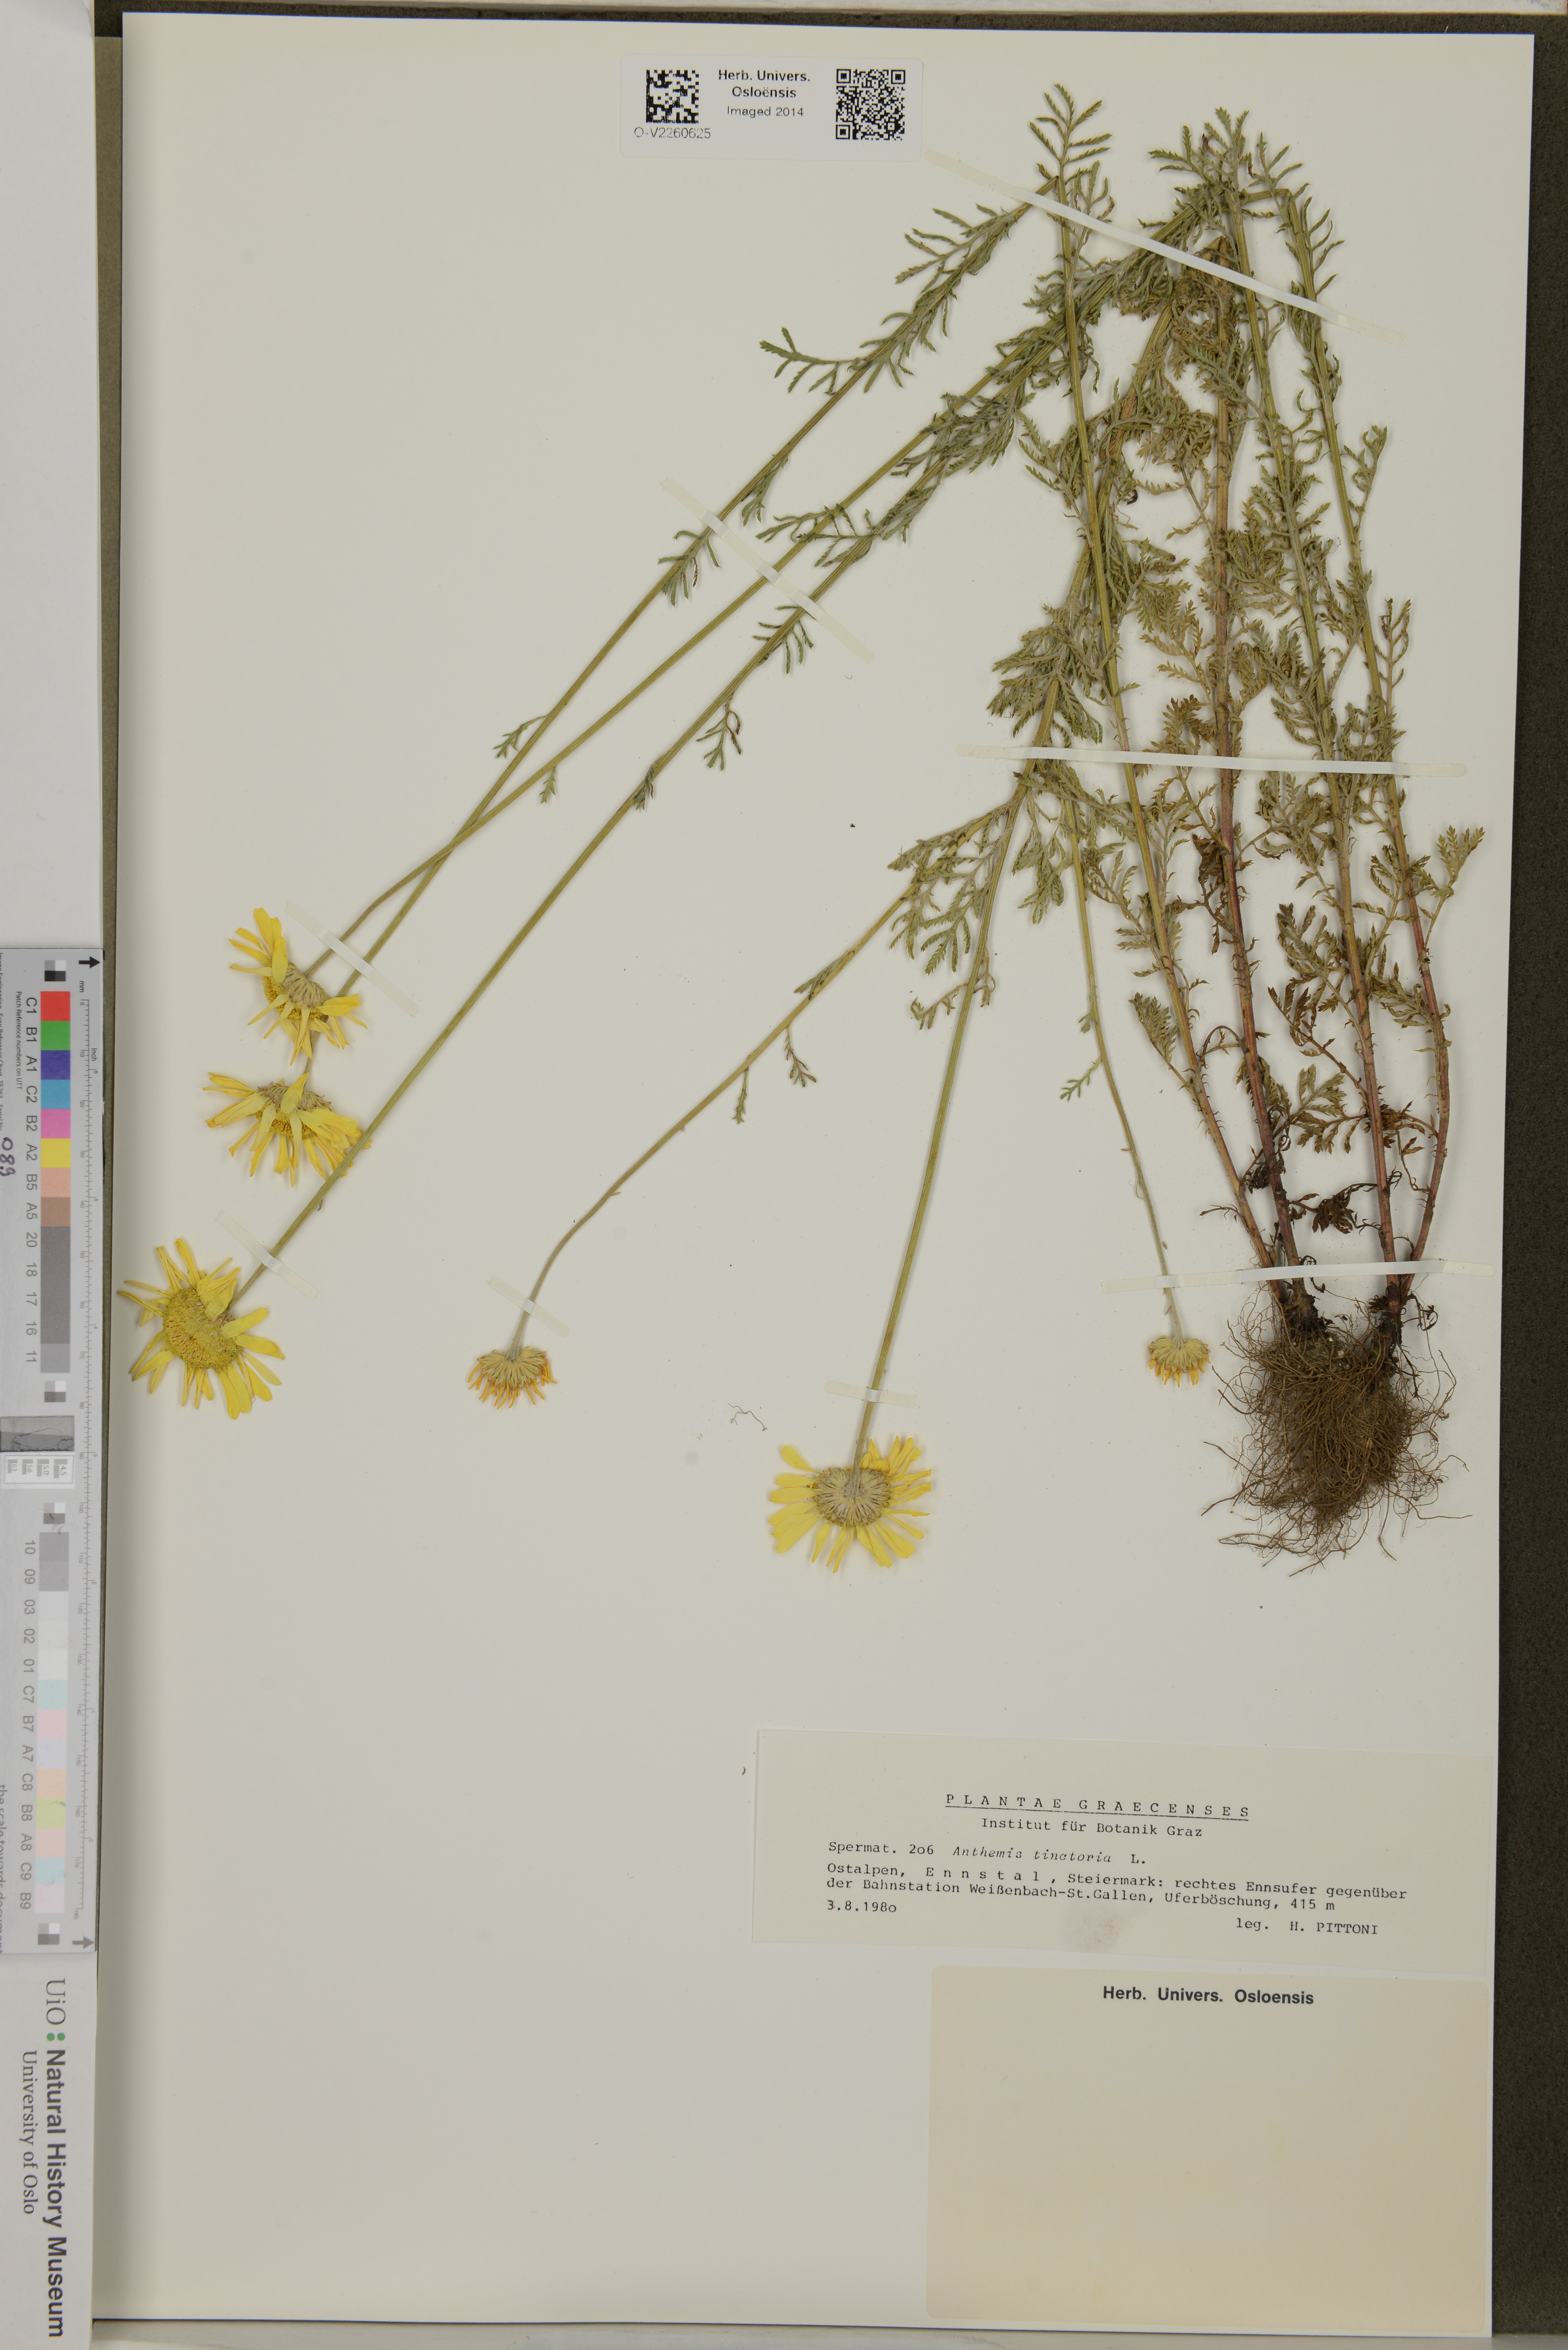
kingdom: Plantae
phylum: Tracheophyta
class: Magnoliopsida
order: Asterales
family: Asteraceae
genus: Cota
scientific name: Cota tinctoria
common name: Golden chamomile
